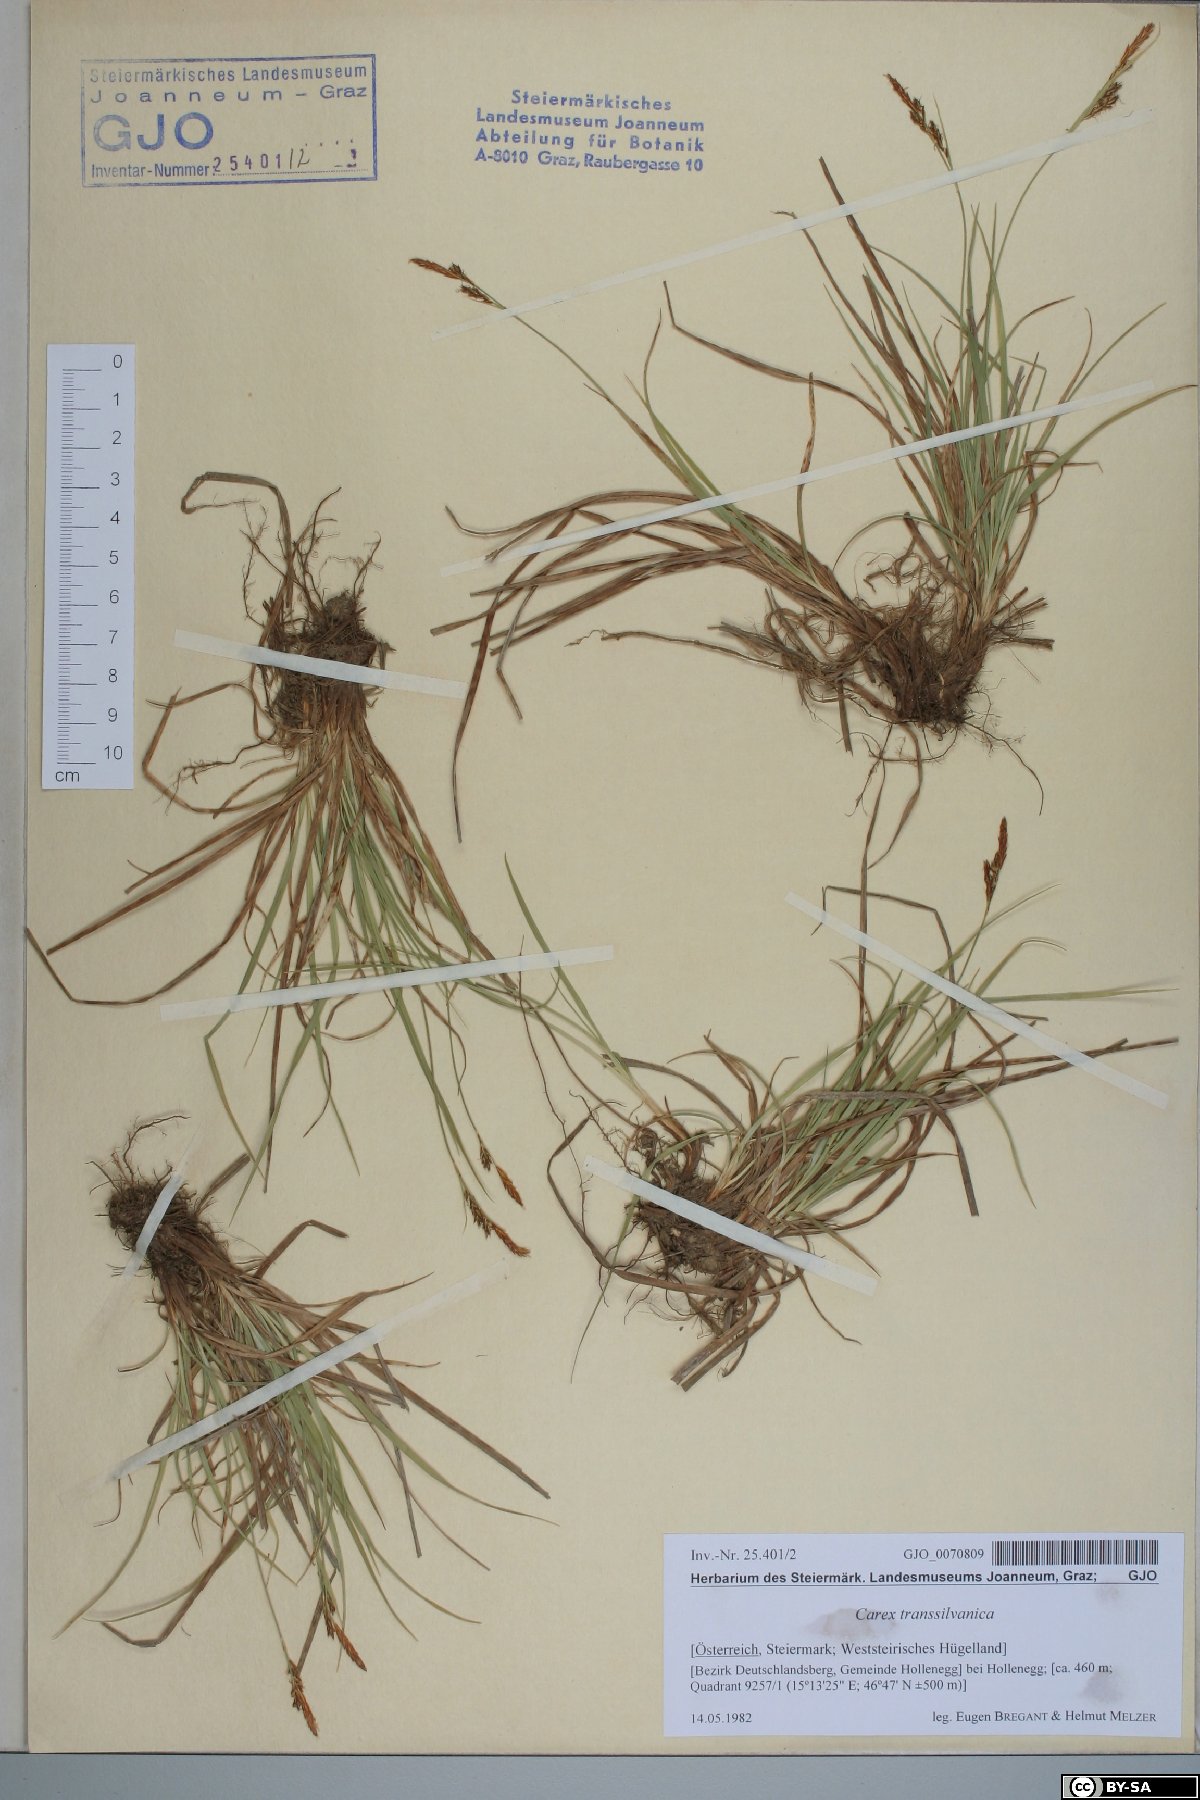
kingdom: Plantae
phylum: Tracheophyta
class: Liliopsida
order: Poales
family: Cyperaceae
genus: Carex
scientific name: Carex depressa
